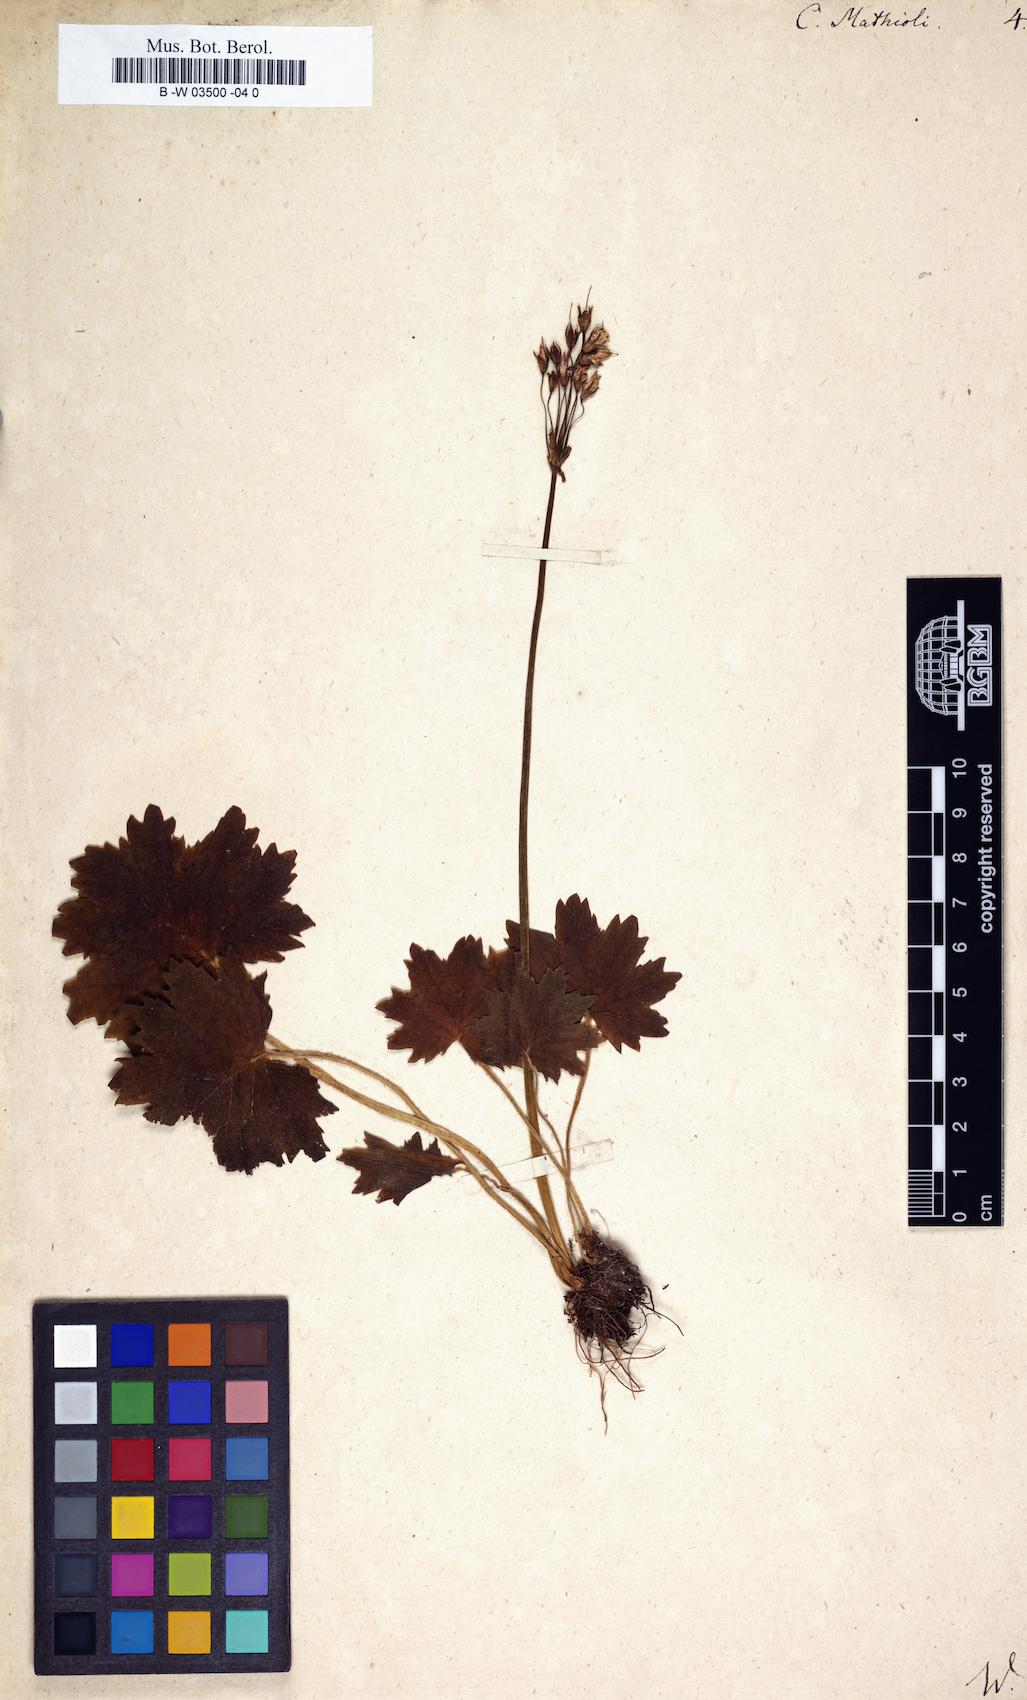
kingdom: Plantae
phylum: Tracheophyta
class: Magnoliopsida
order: Ericales
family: Primulaceae
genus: Primula
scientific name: Primula matthioli
